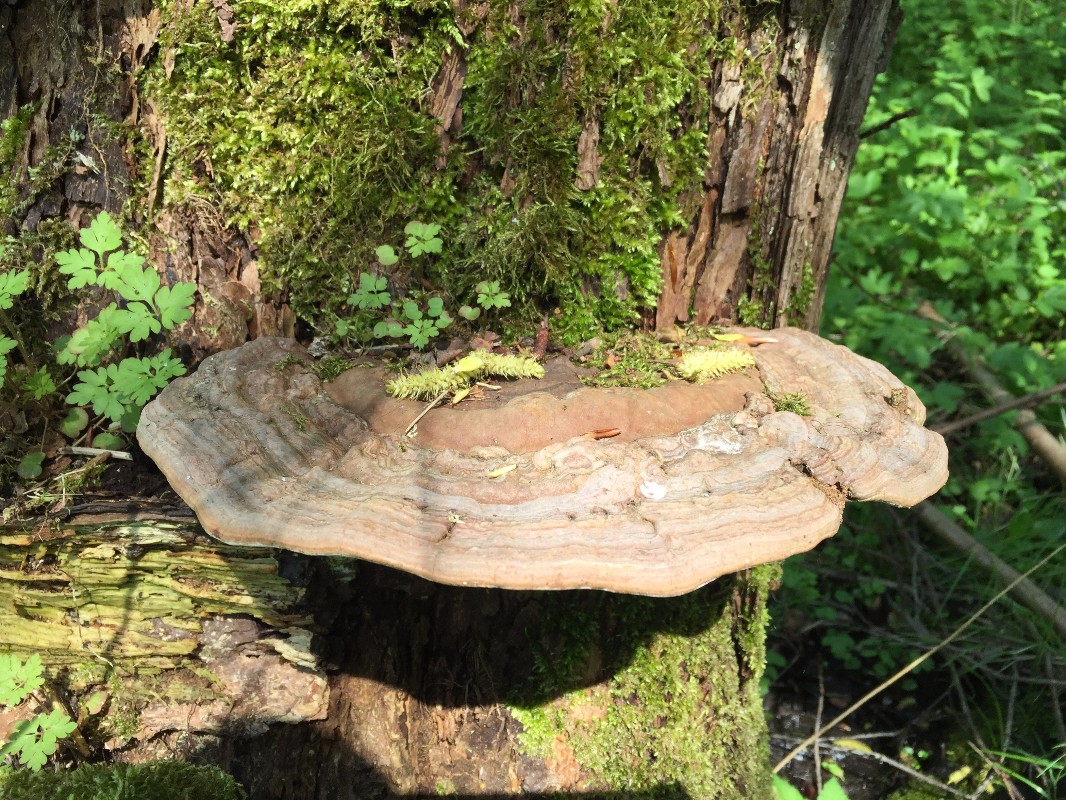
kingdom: Fungi
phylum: Basidiomycota
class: Agaricomycetes
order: Polyporales
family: Polyporaceae
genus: Ganoderma
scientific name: Ganoderma applanatum
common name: flad lakporesvamp
